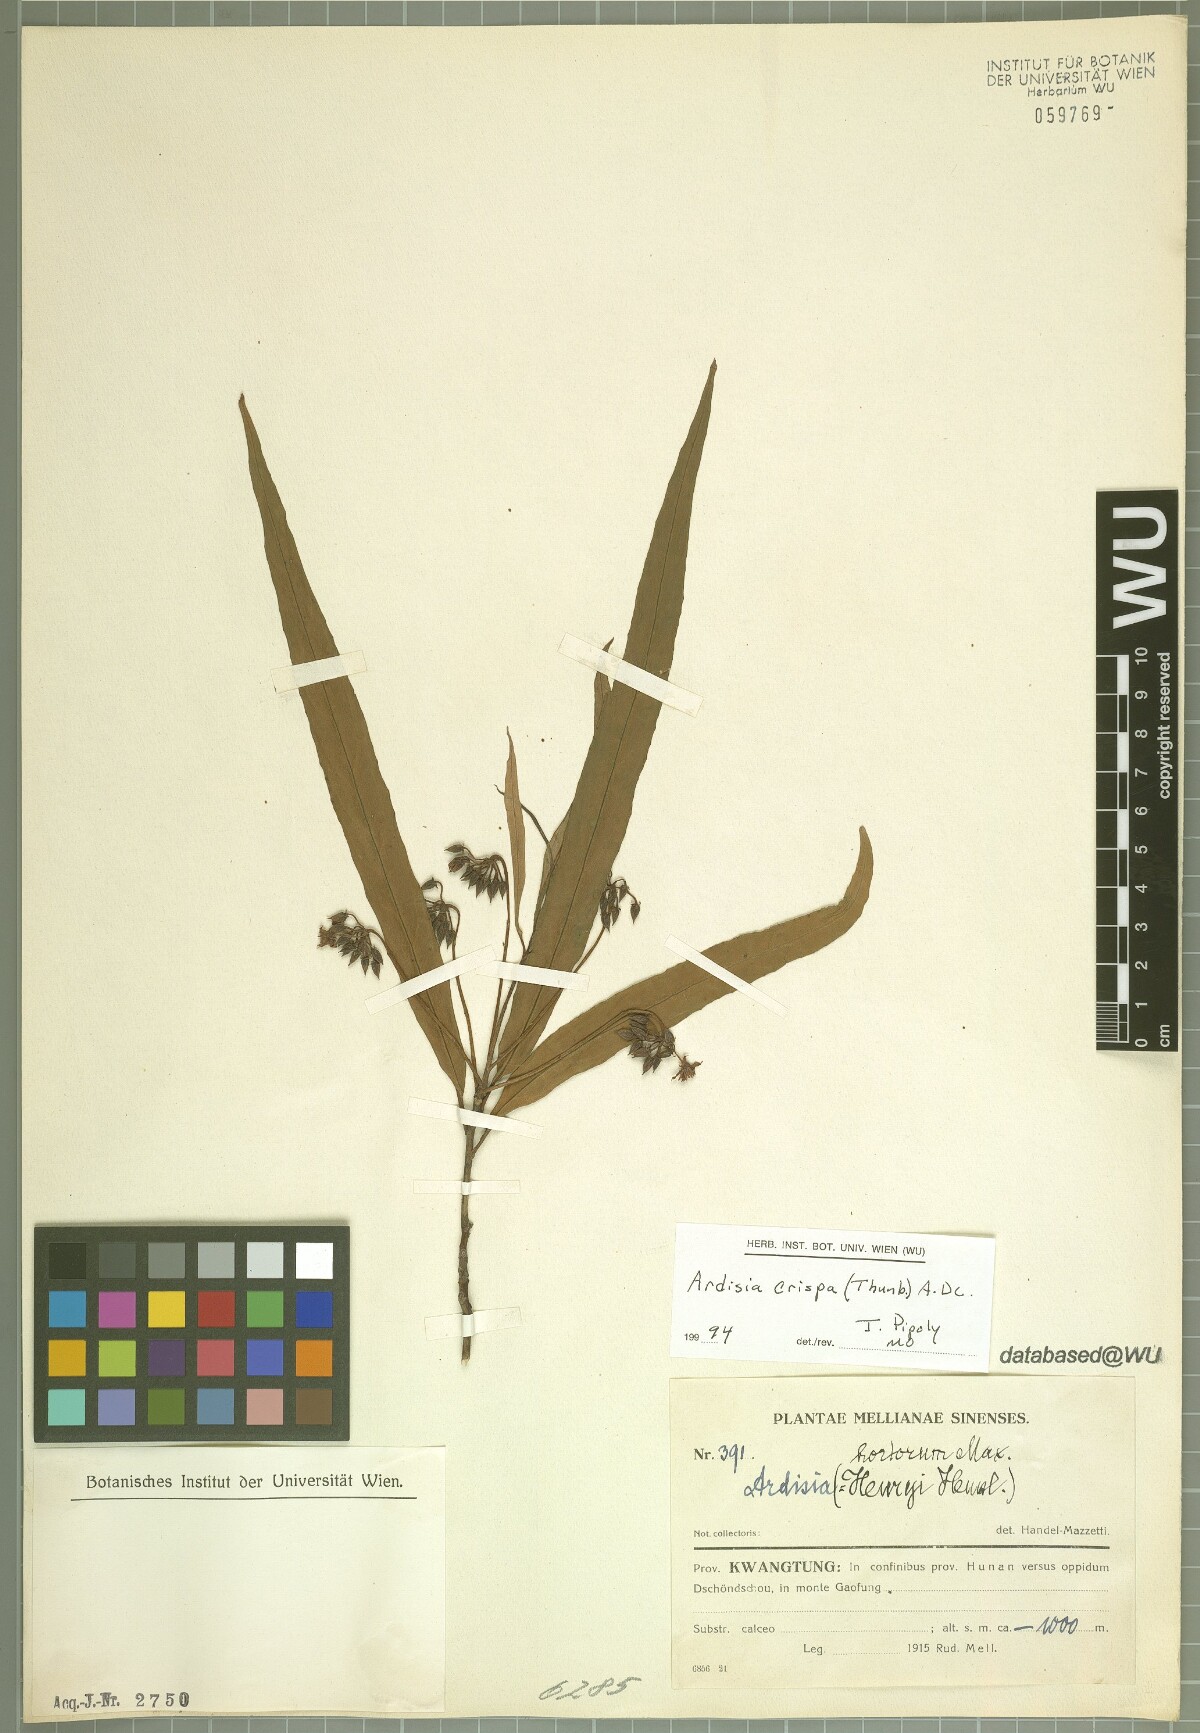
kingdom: Plantae
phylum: Tracheophyta
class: Magnoliopsida
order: Ericales
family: Primulaceae
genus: Ardisia
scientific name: Ardisia crispa
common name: Japanese-holly
